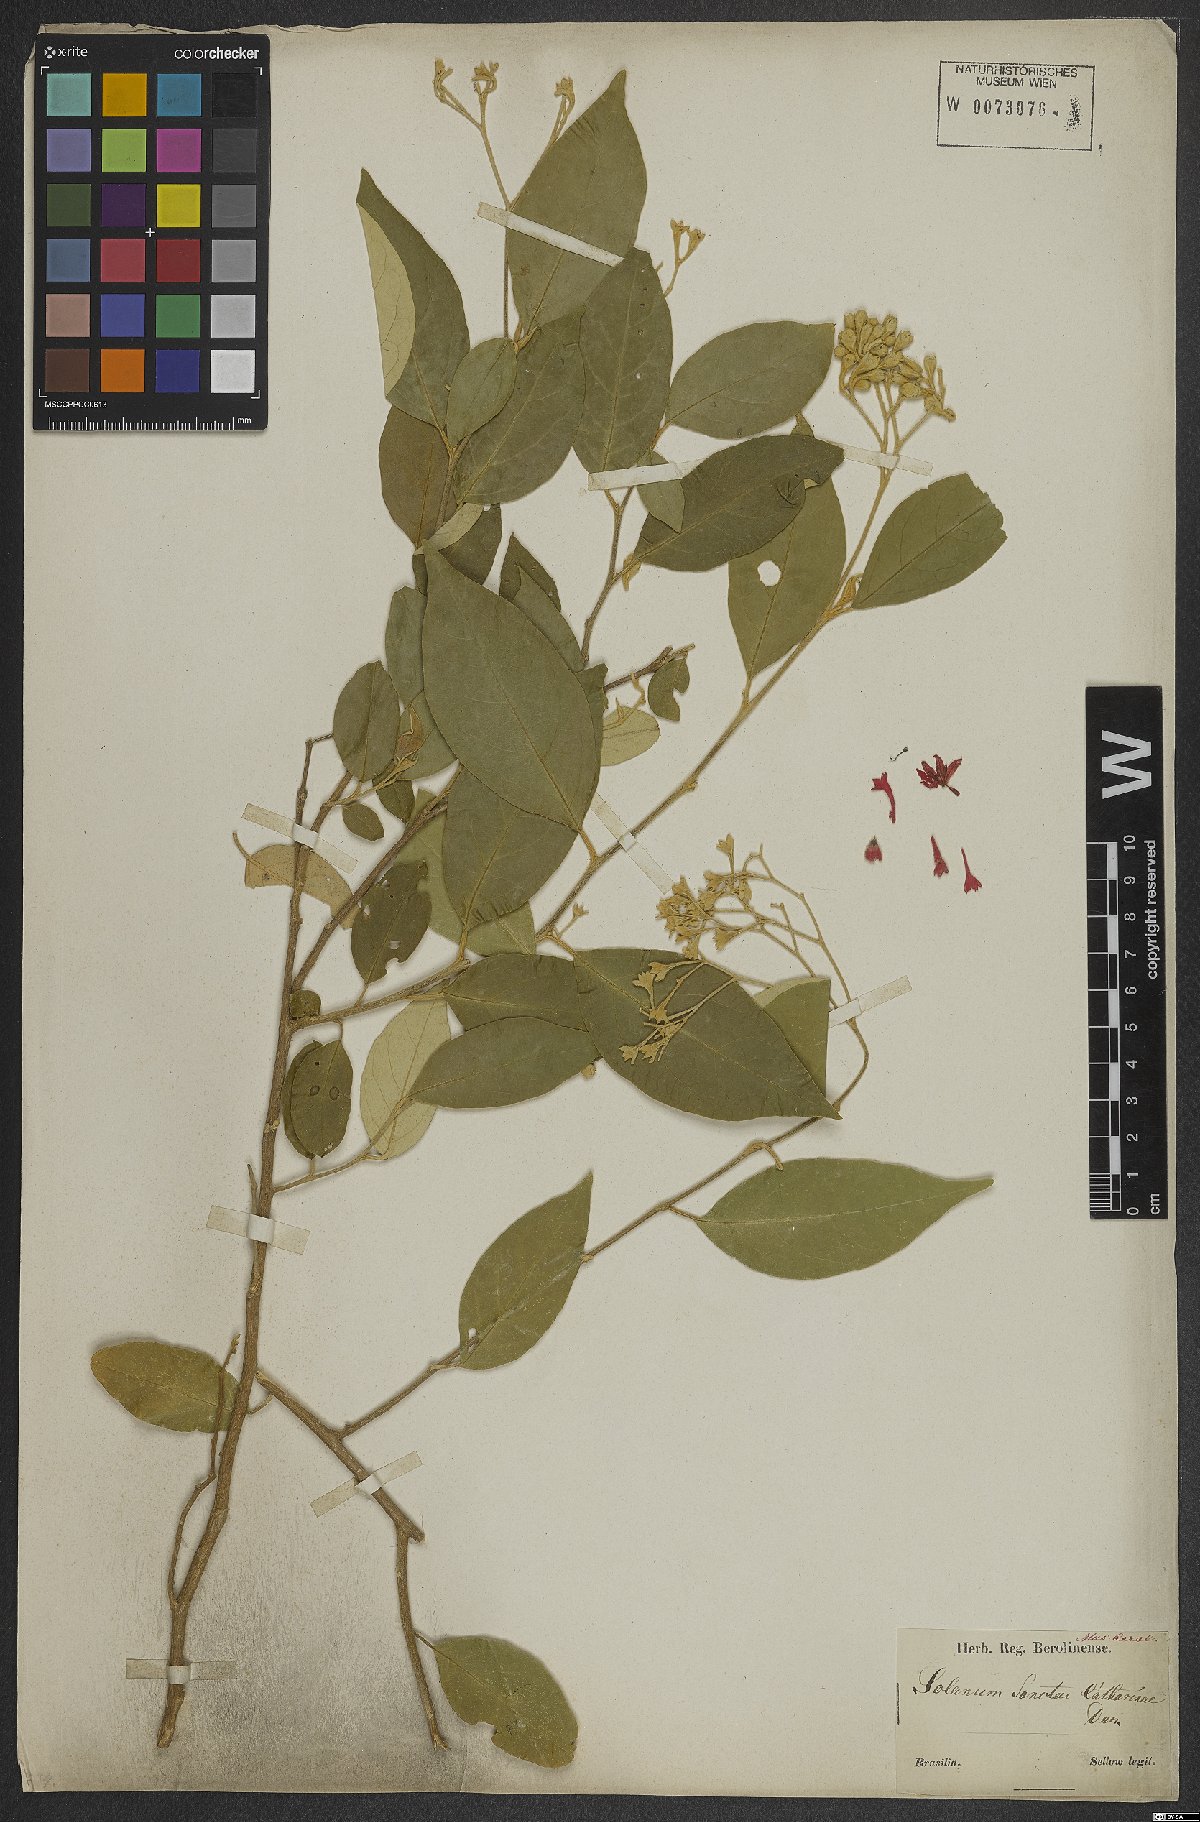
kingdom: Plantae
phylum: Tracheophyta
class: Magnoliopsida
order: Solanales
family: Solanaceae
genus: Solanum
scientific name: Solanum sanctae-catharinae
